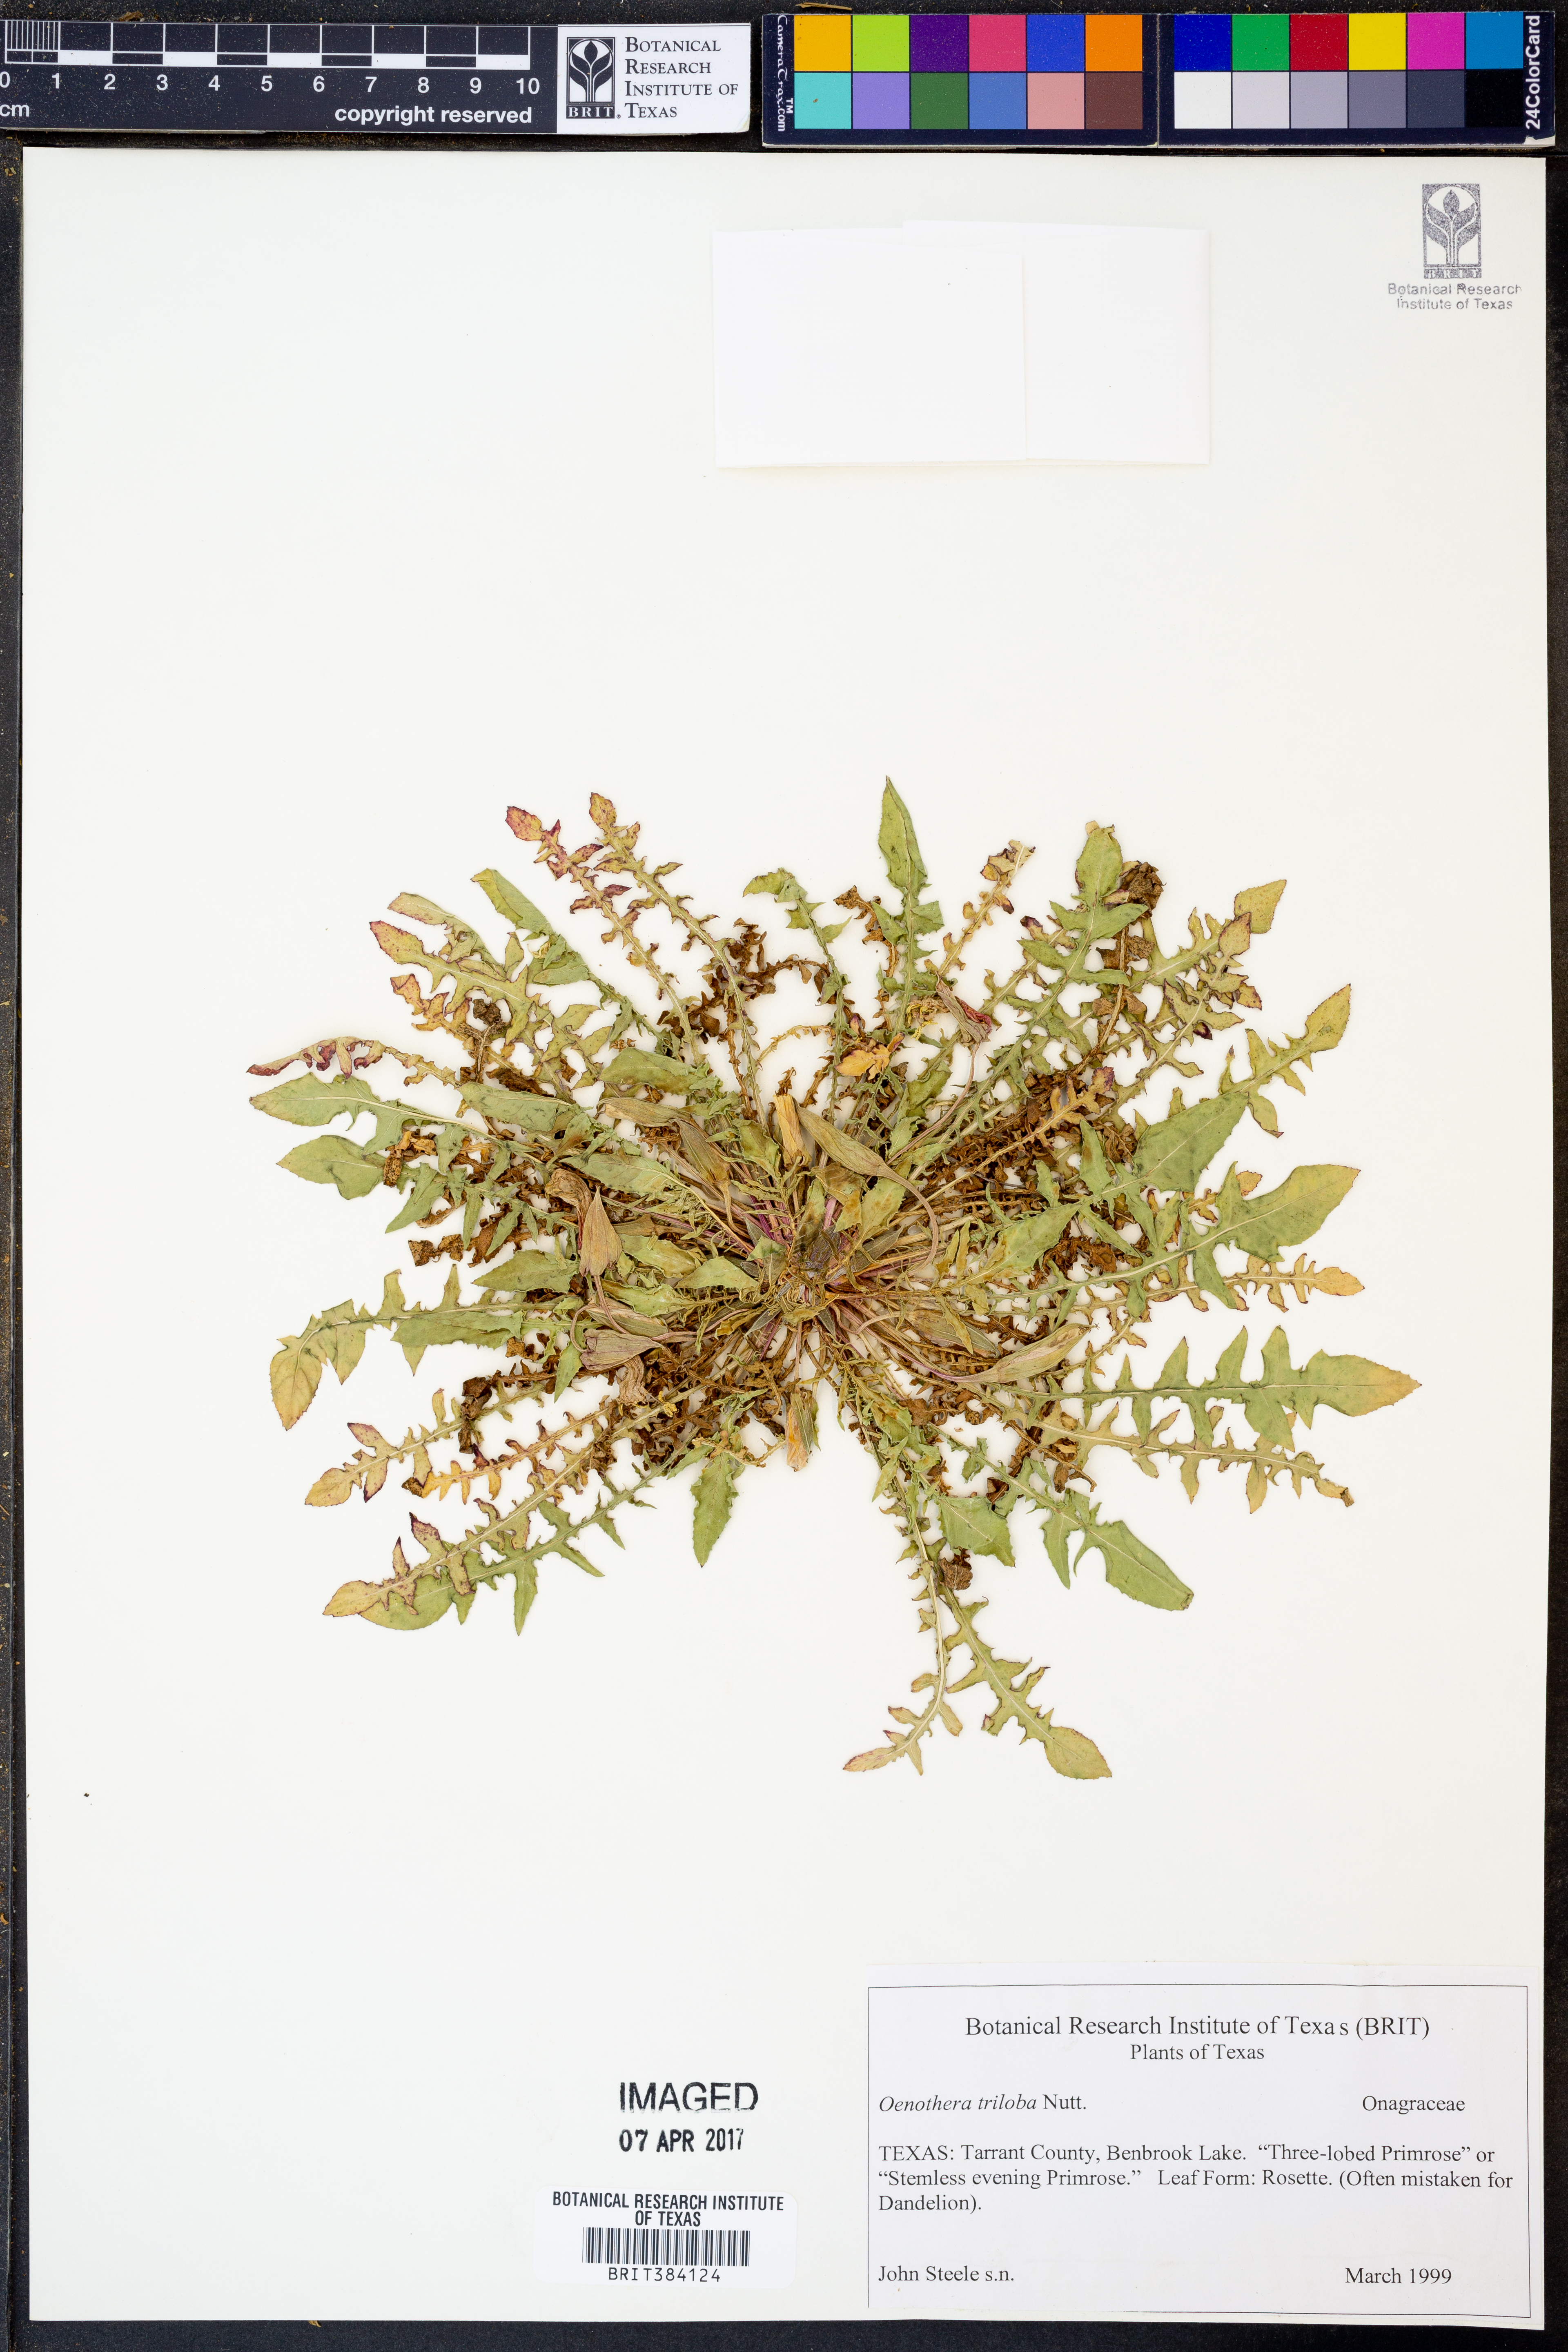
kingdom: Plantae
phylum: Tracheophyta
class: Magnoliopsida
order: Myrtales
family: Onagraceae
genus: Oenothera
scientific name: Oenothera triloba
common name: Sessile evening-primrose
